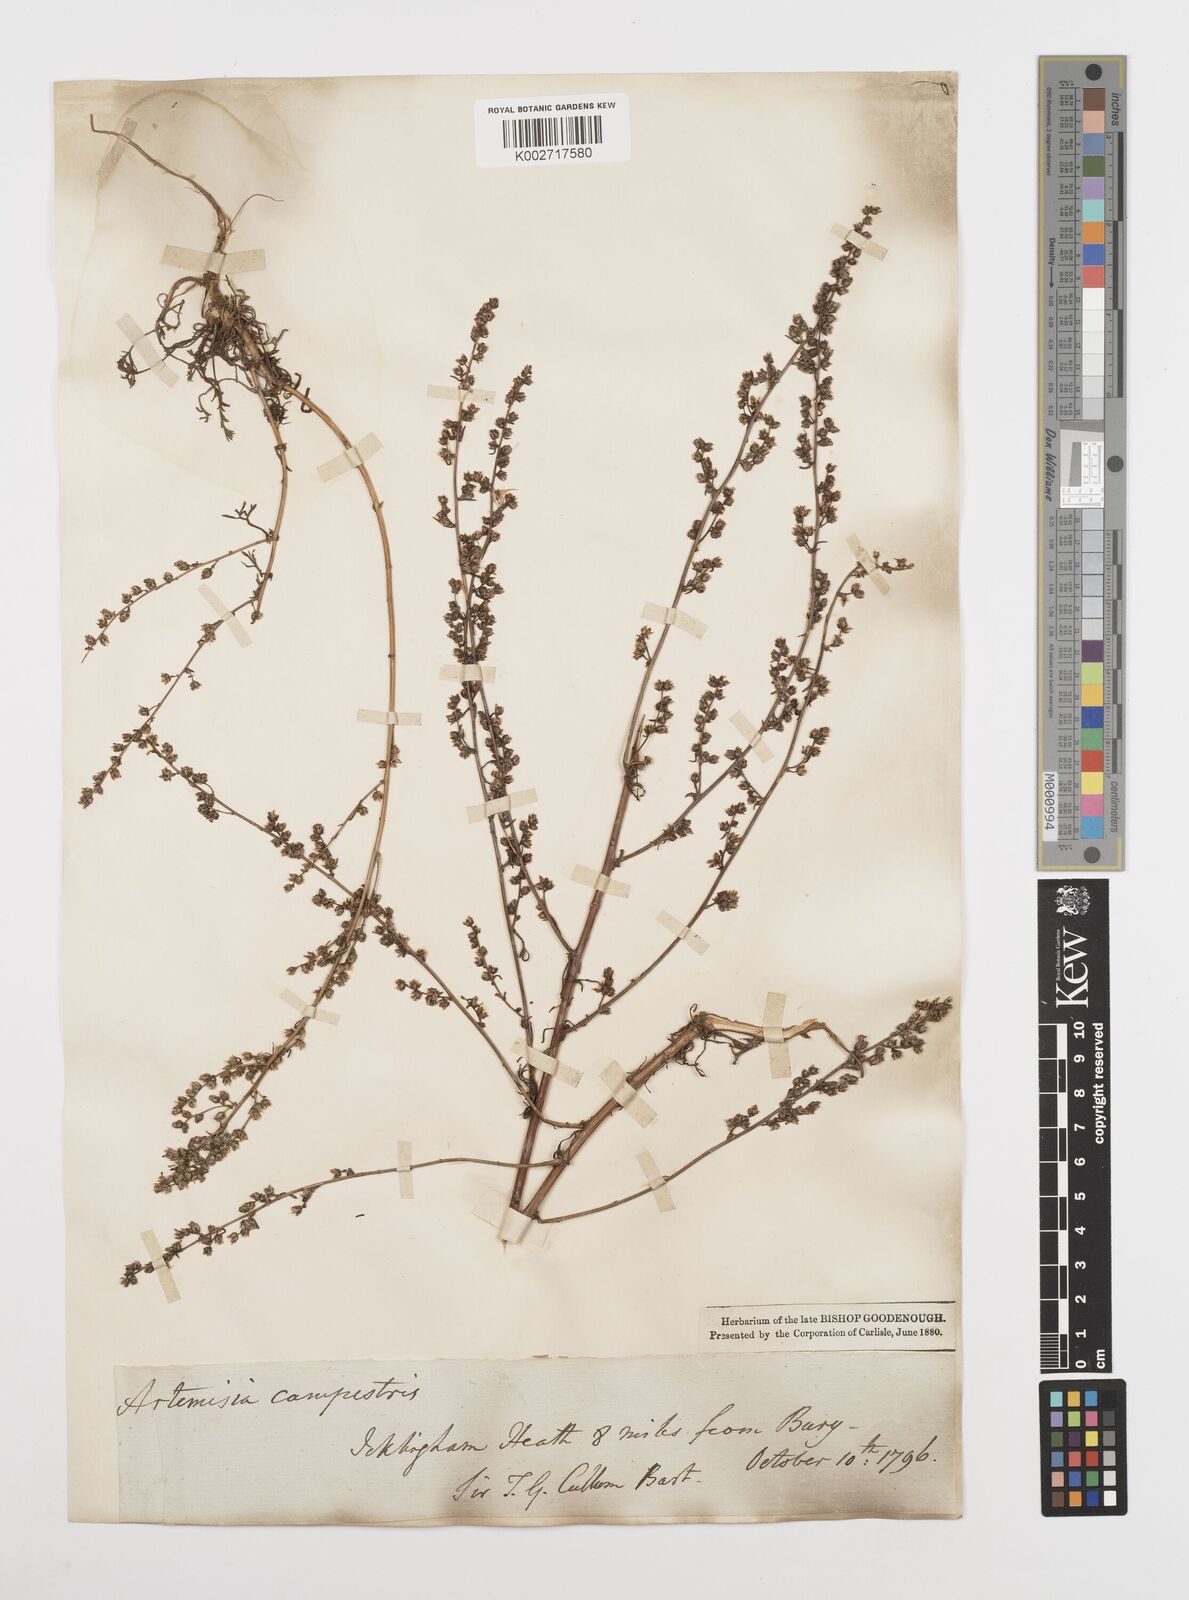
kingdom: Plantae
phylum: Tracheophyta
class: Magnoliopsida
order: Asterales
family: Asteraceae
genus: Artemisia
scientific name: Artemisia campestris
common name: Field wormwood
